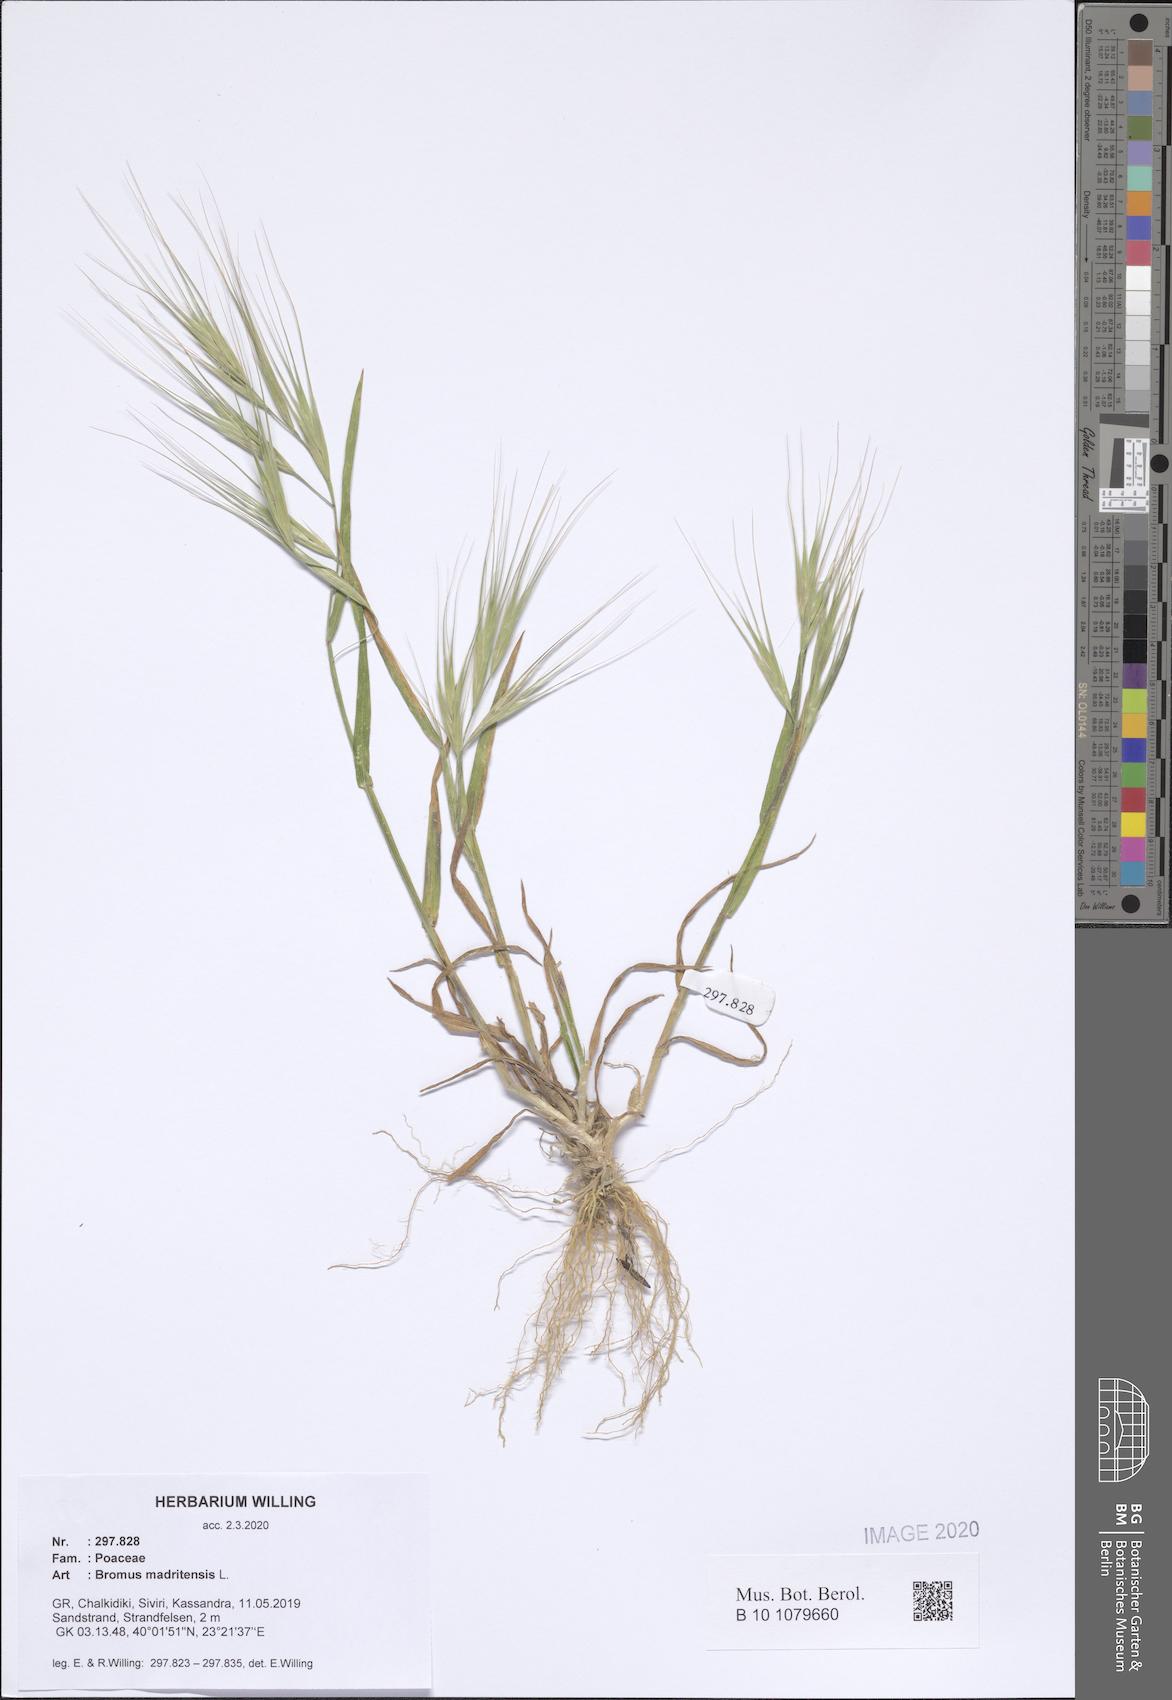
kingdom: Plantae
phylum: Tracheophyta
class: Liliopsida
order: Poales
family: Poaceae
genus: Bromus
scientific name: Bromus madritensis
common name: Compact brome
